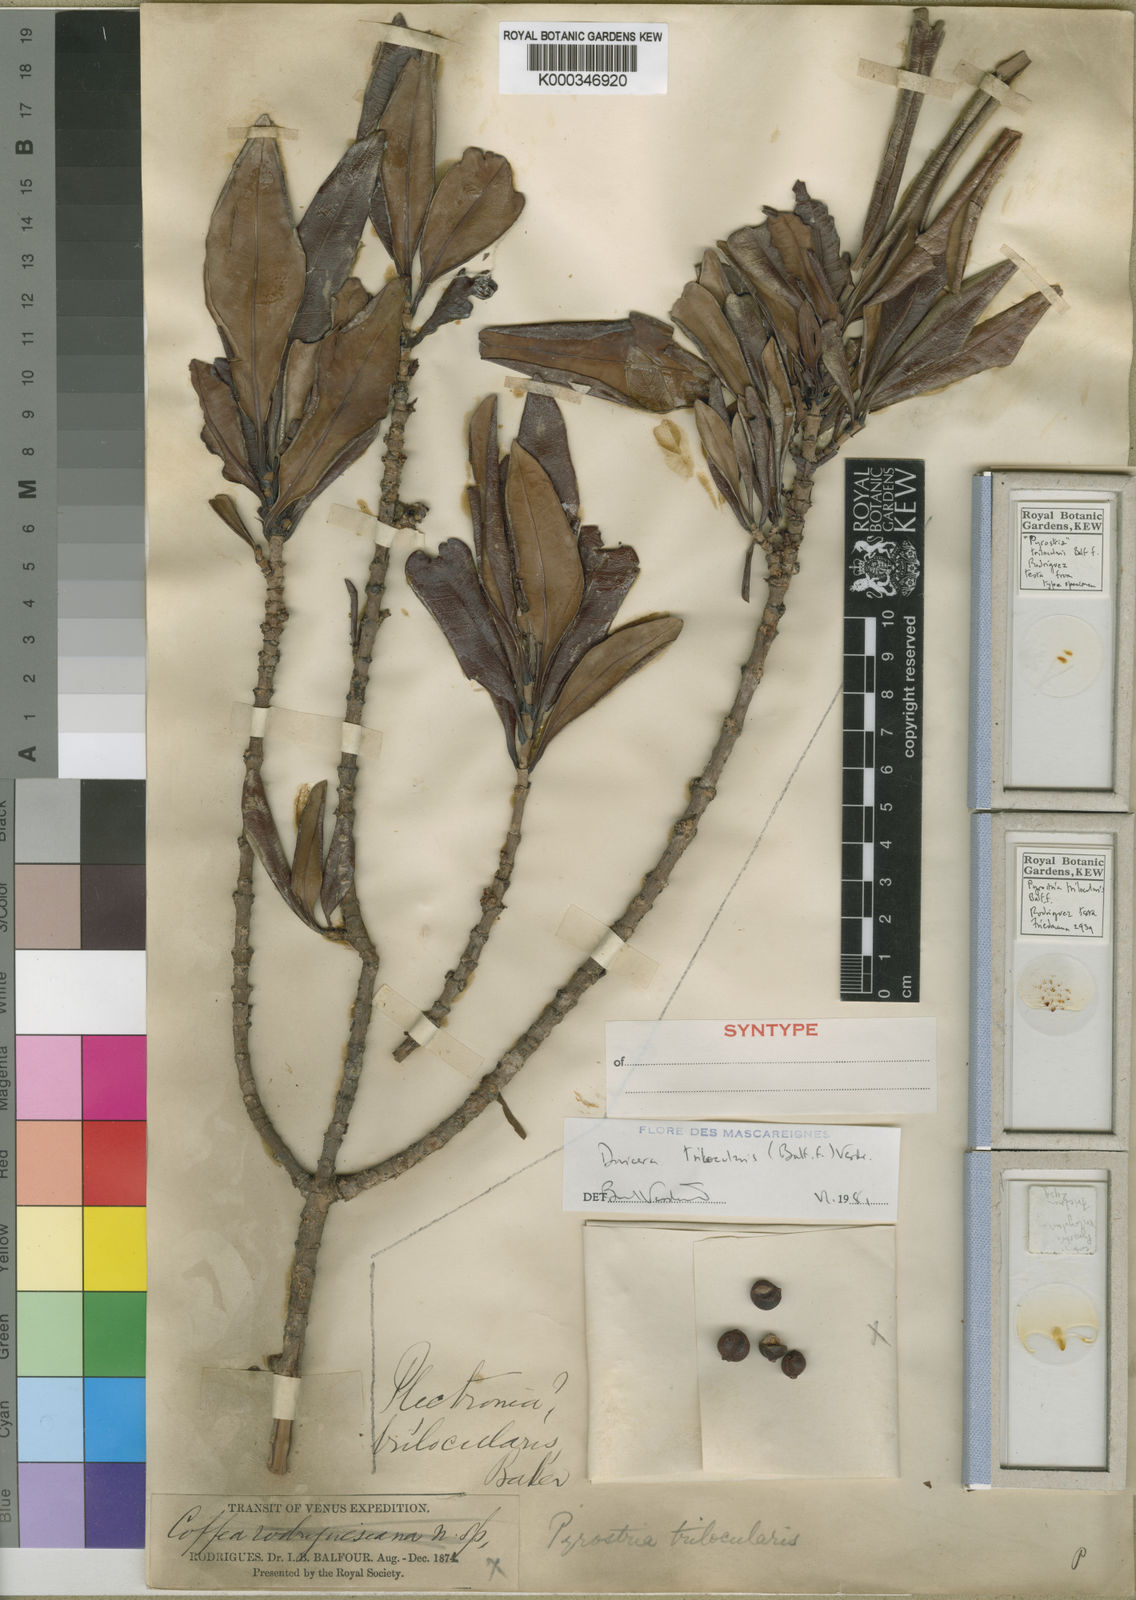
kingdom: Plantae
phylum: Tracheophyta
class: Magnoliopsida
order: Gentianales
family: Rubiaceae
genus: Ixora
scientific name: Ixora trilocularis
